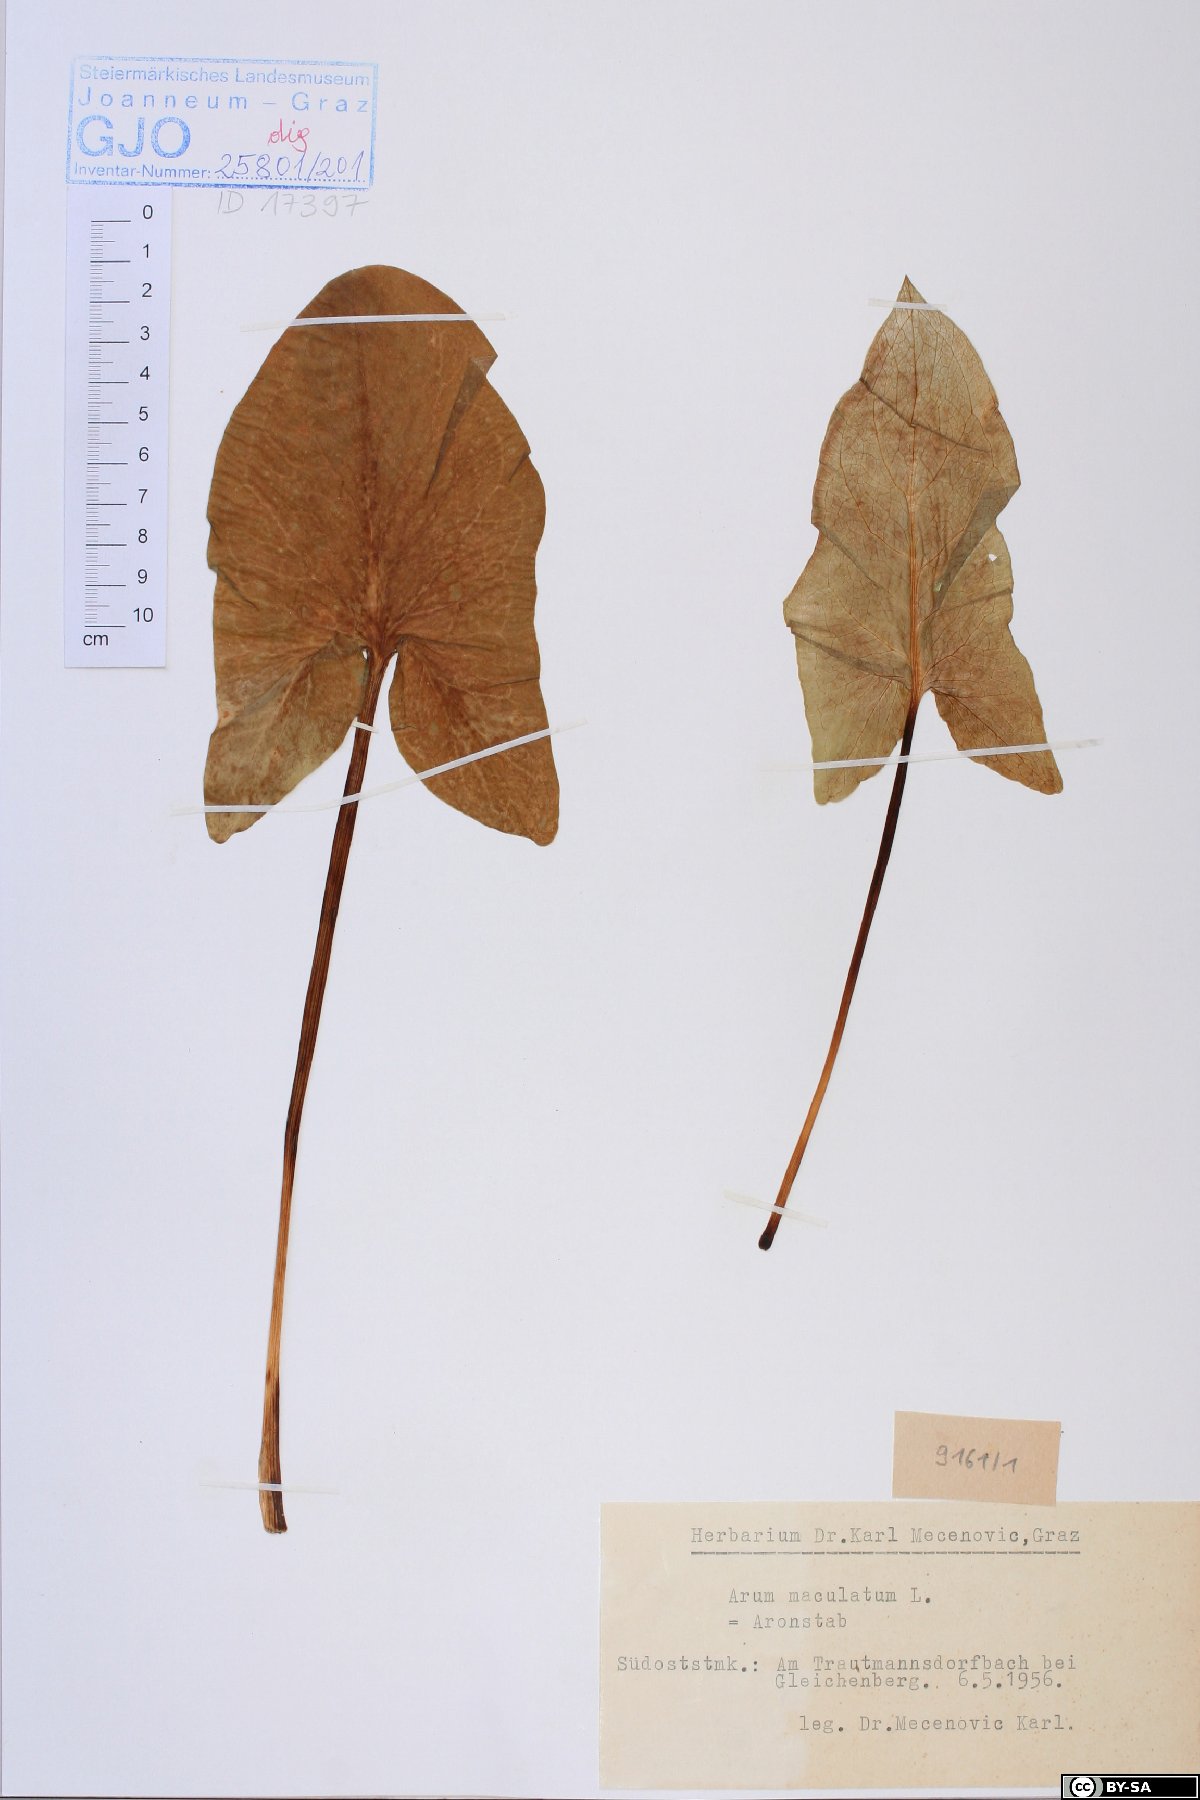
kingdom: Plantae
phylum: Tracheophyta
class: Liliopsida
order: Alismatales
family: Araceae
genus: Arum
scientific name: Arum maculatum
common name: Lords-and-ladies
